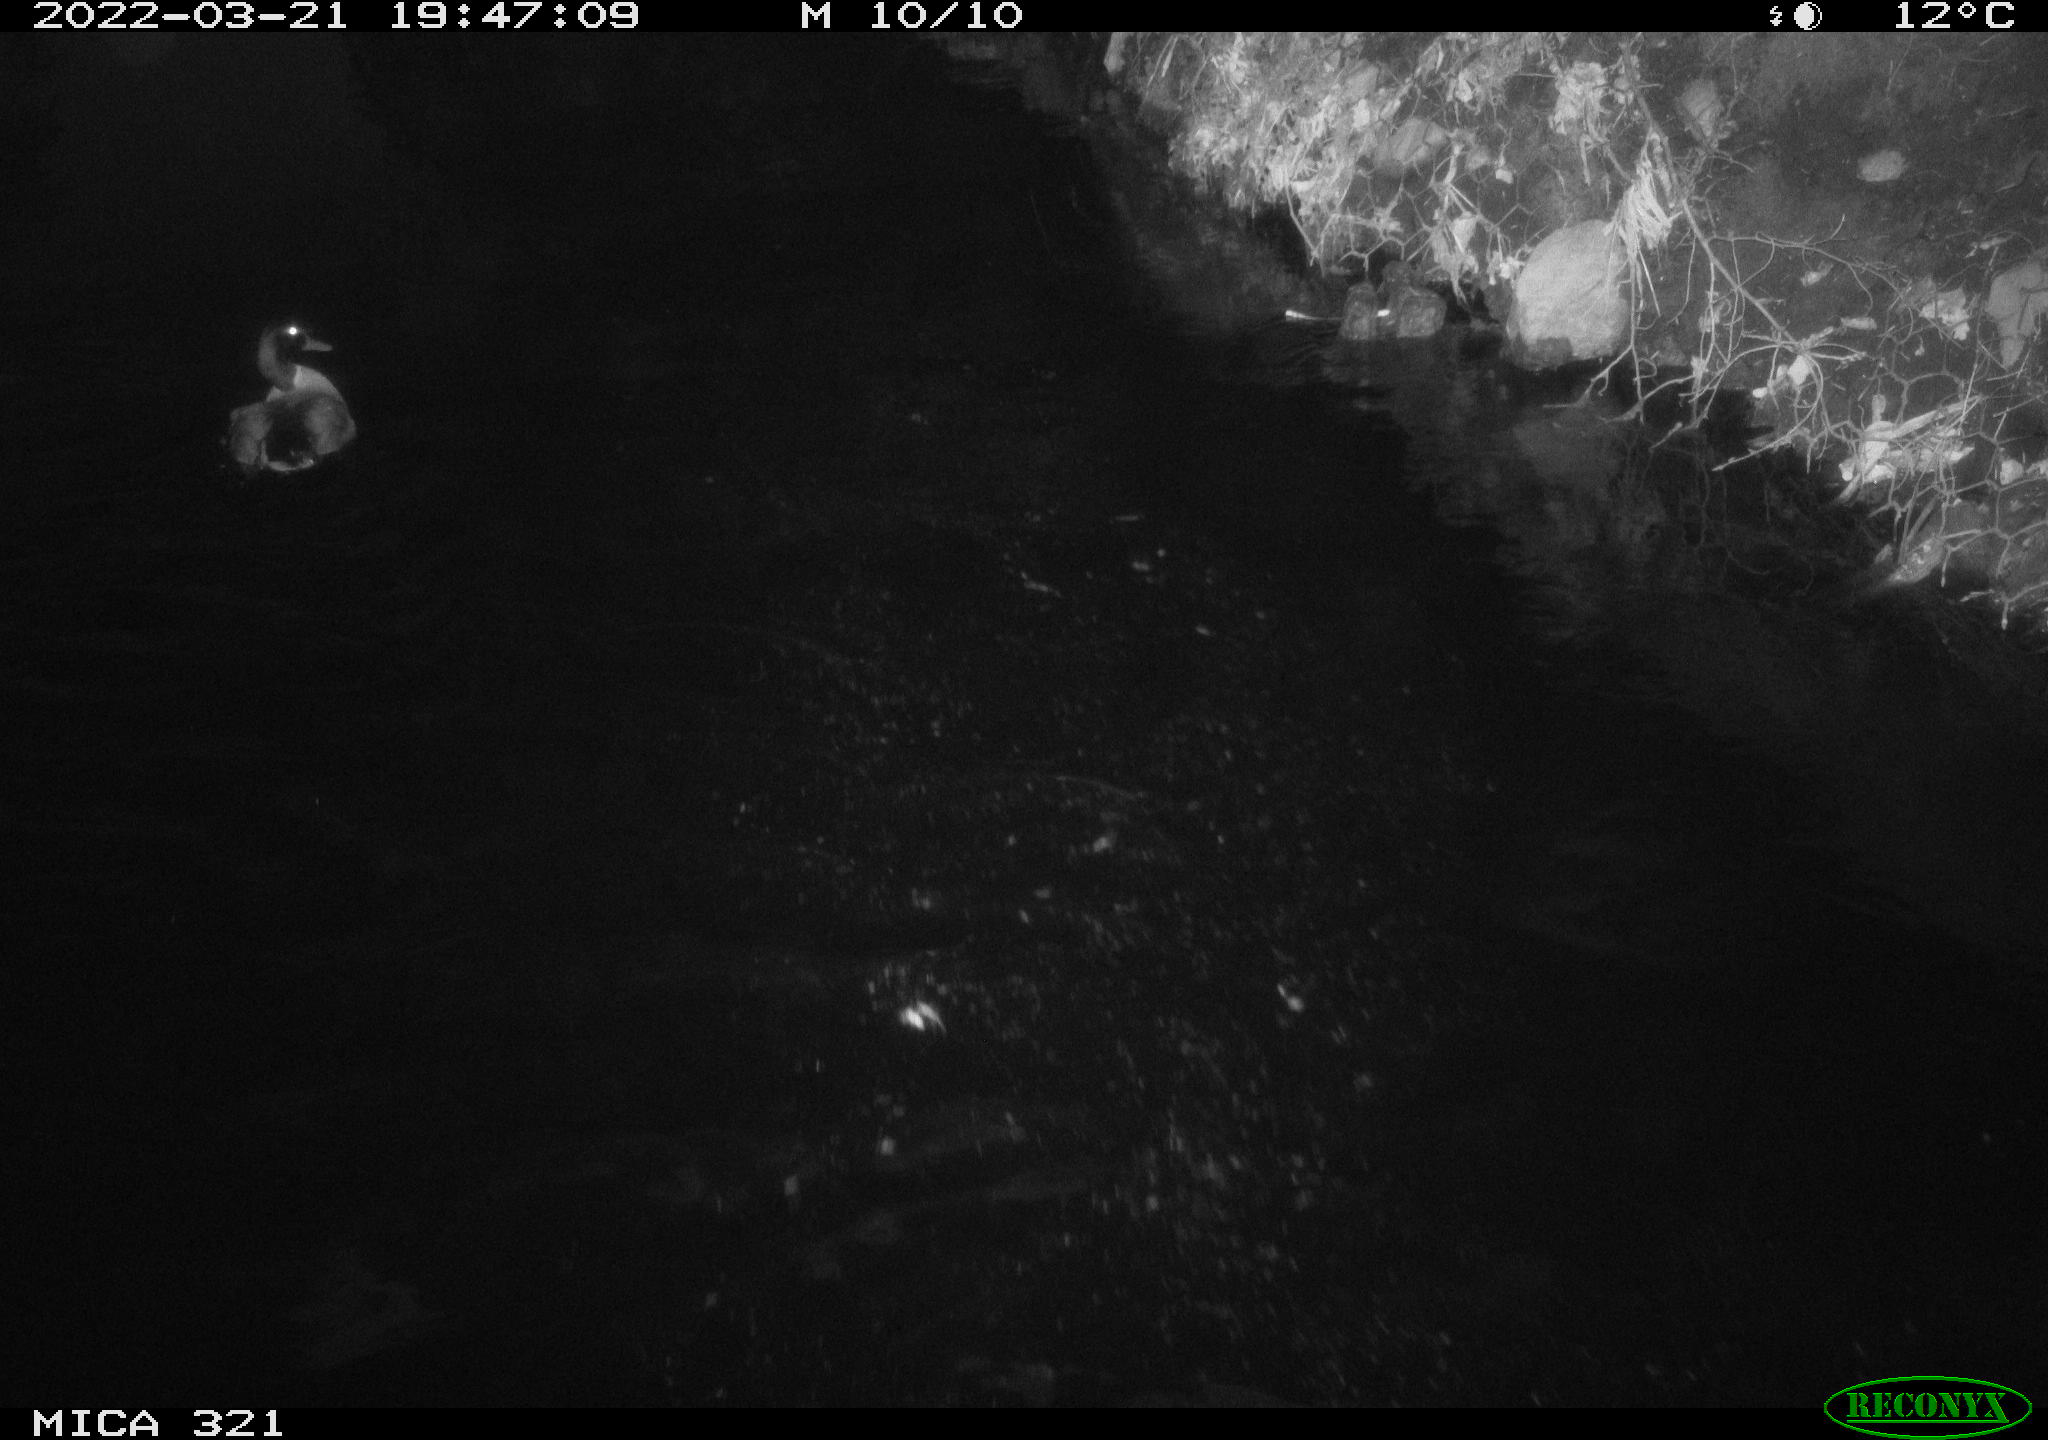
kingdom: Animalia
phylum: Chordata
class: Aves
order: Anseriformes
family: Anatidae
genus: Anas
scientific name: Anas platyrhynchos
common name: Mallard
